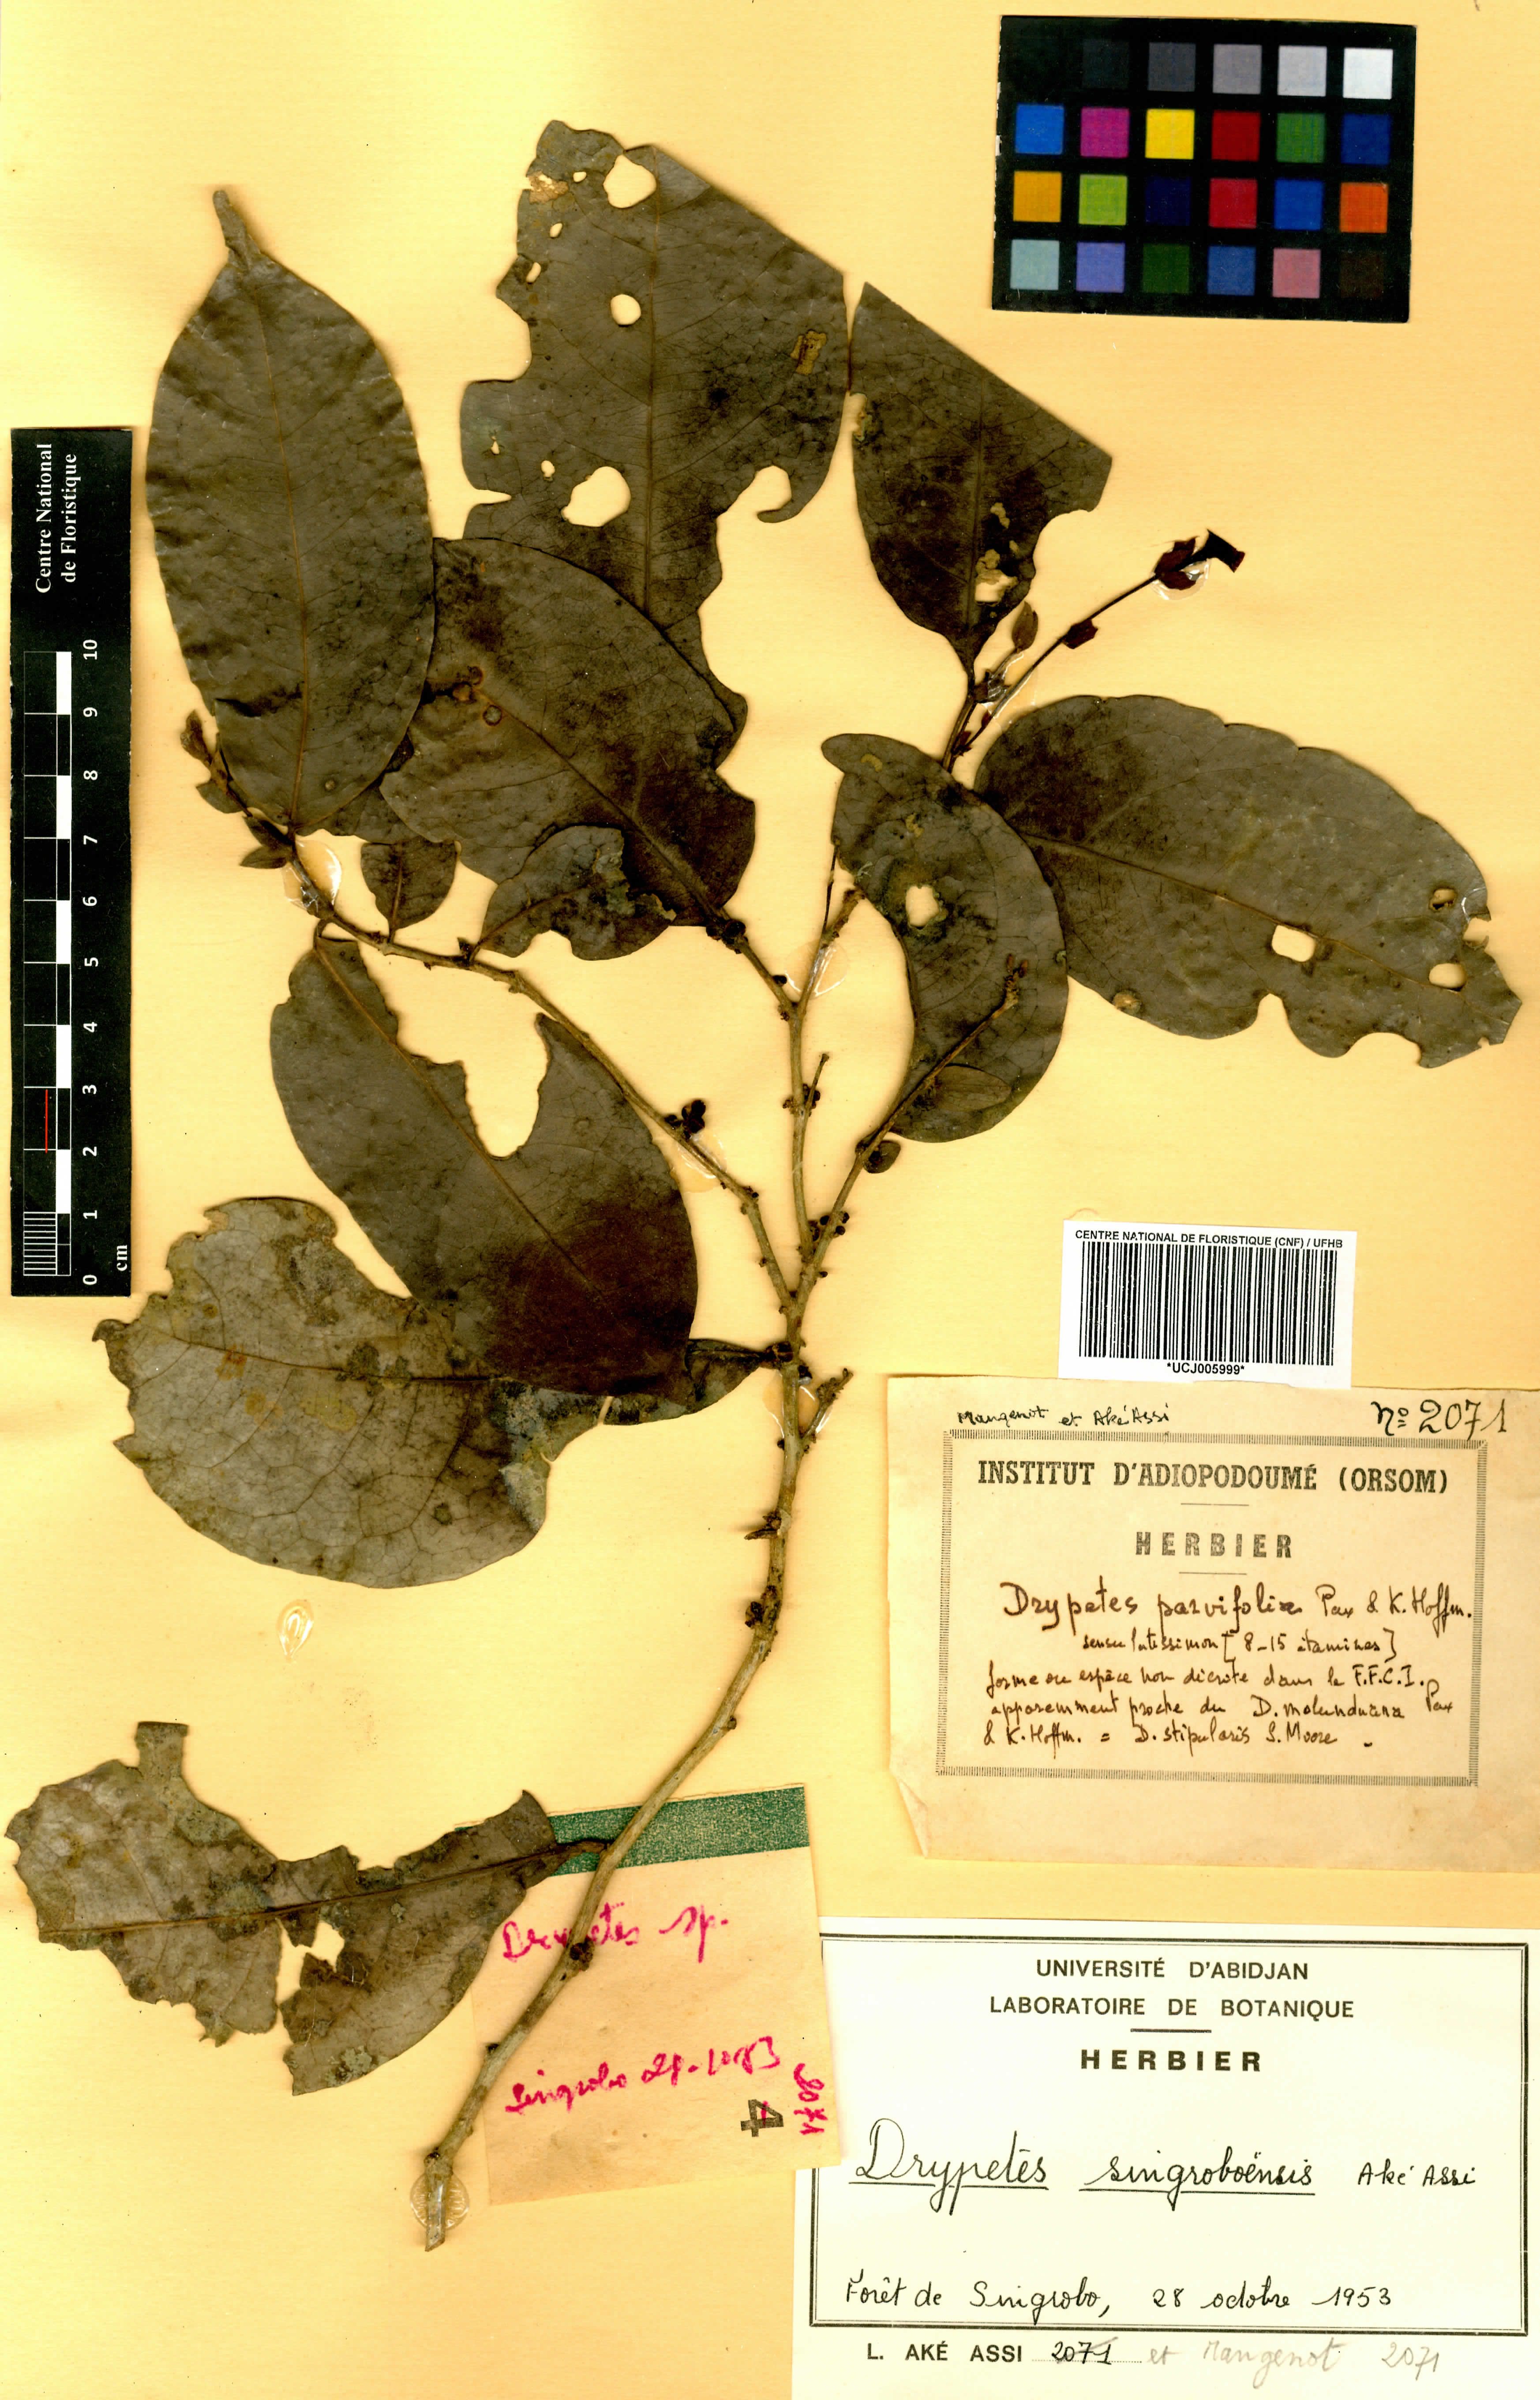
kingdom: Plantae
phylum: Tracheophyta
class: Magnoliopsida
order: Malpighiales
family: Putranjivaceae
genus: Drypetes
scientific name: Drypetes singroboensis
